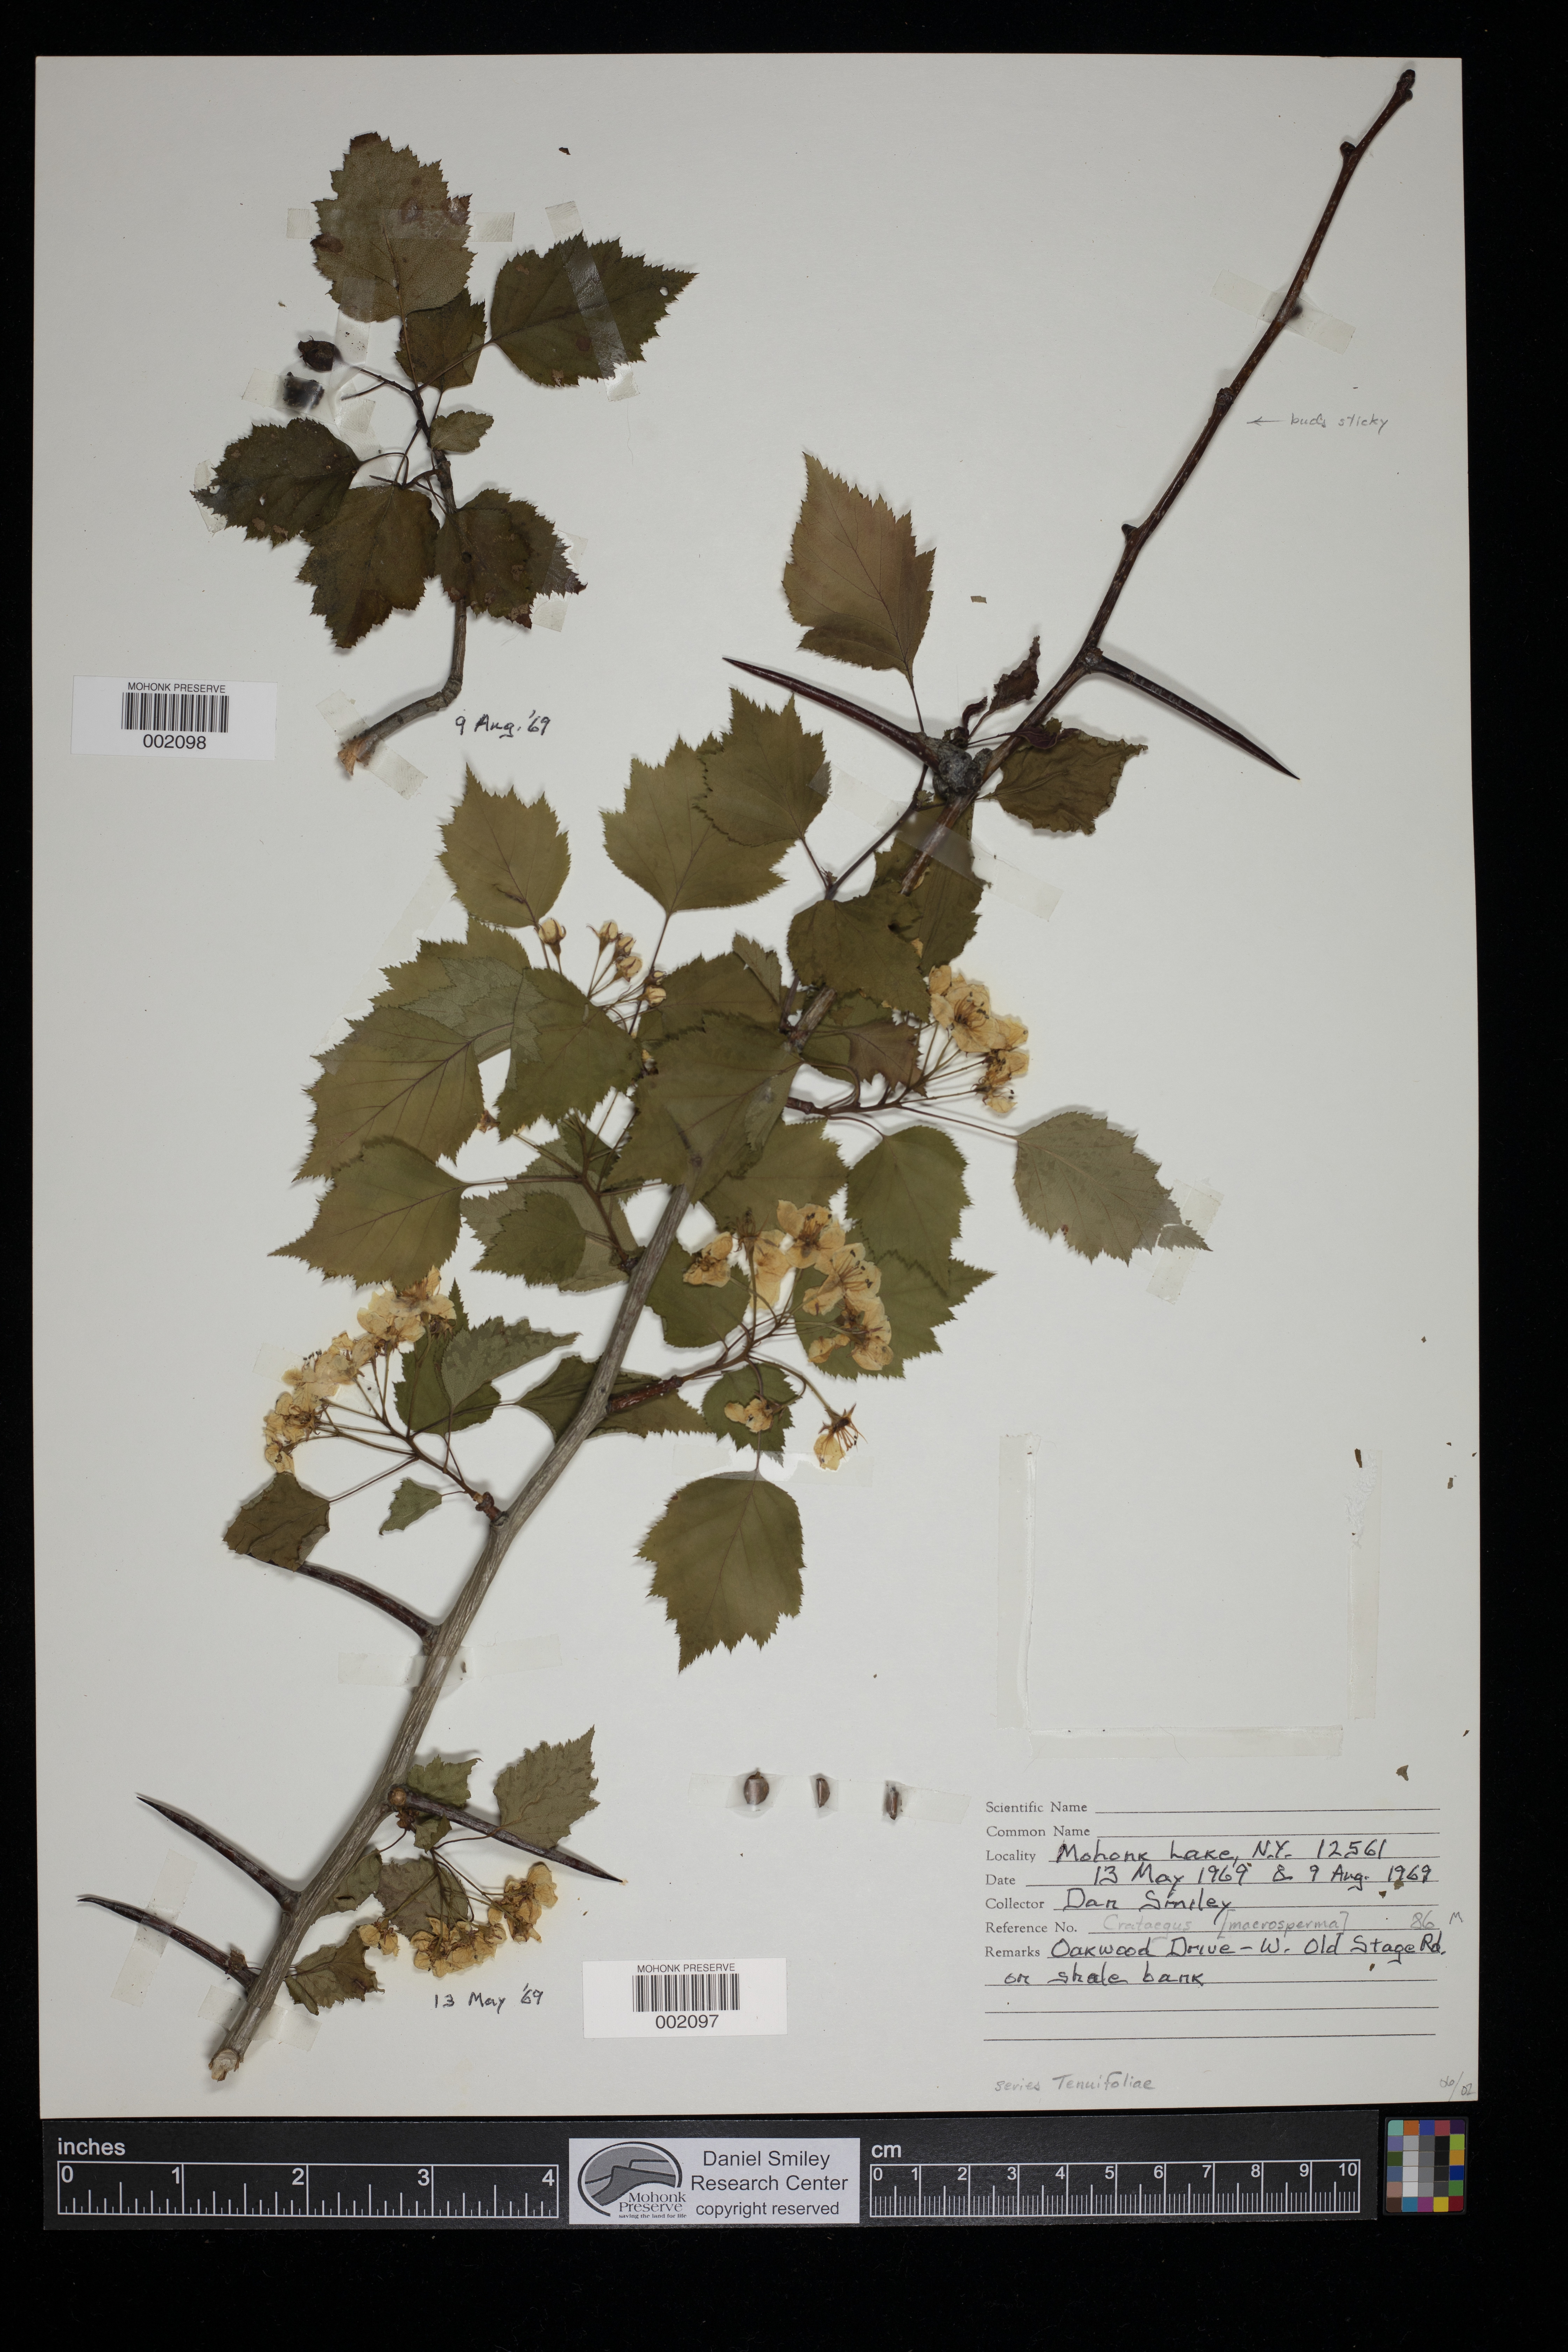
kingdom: Plantae
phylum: Tracheophyta
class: Magnoliopsida
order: Rosales
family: Rosaceae
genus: Crataegus
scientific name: Crataegus macrosperma
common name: Variable hawthorn
